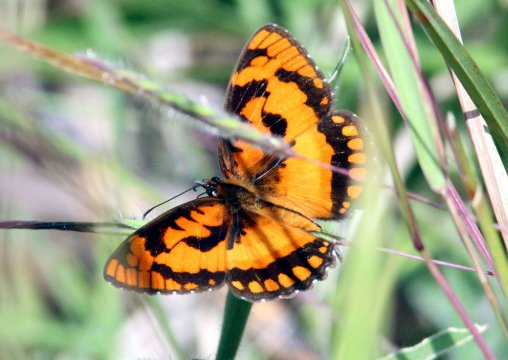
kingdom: Animalia
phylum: Arthropoda
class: Insecta
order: Lepidoptera
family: Nymphalidae
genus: Byblia
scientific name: Byblia anvatara
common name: African Joker
